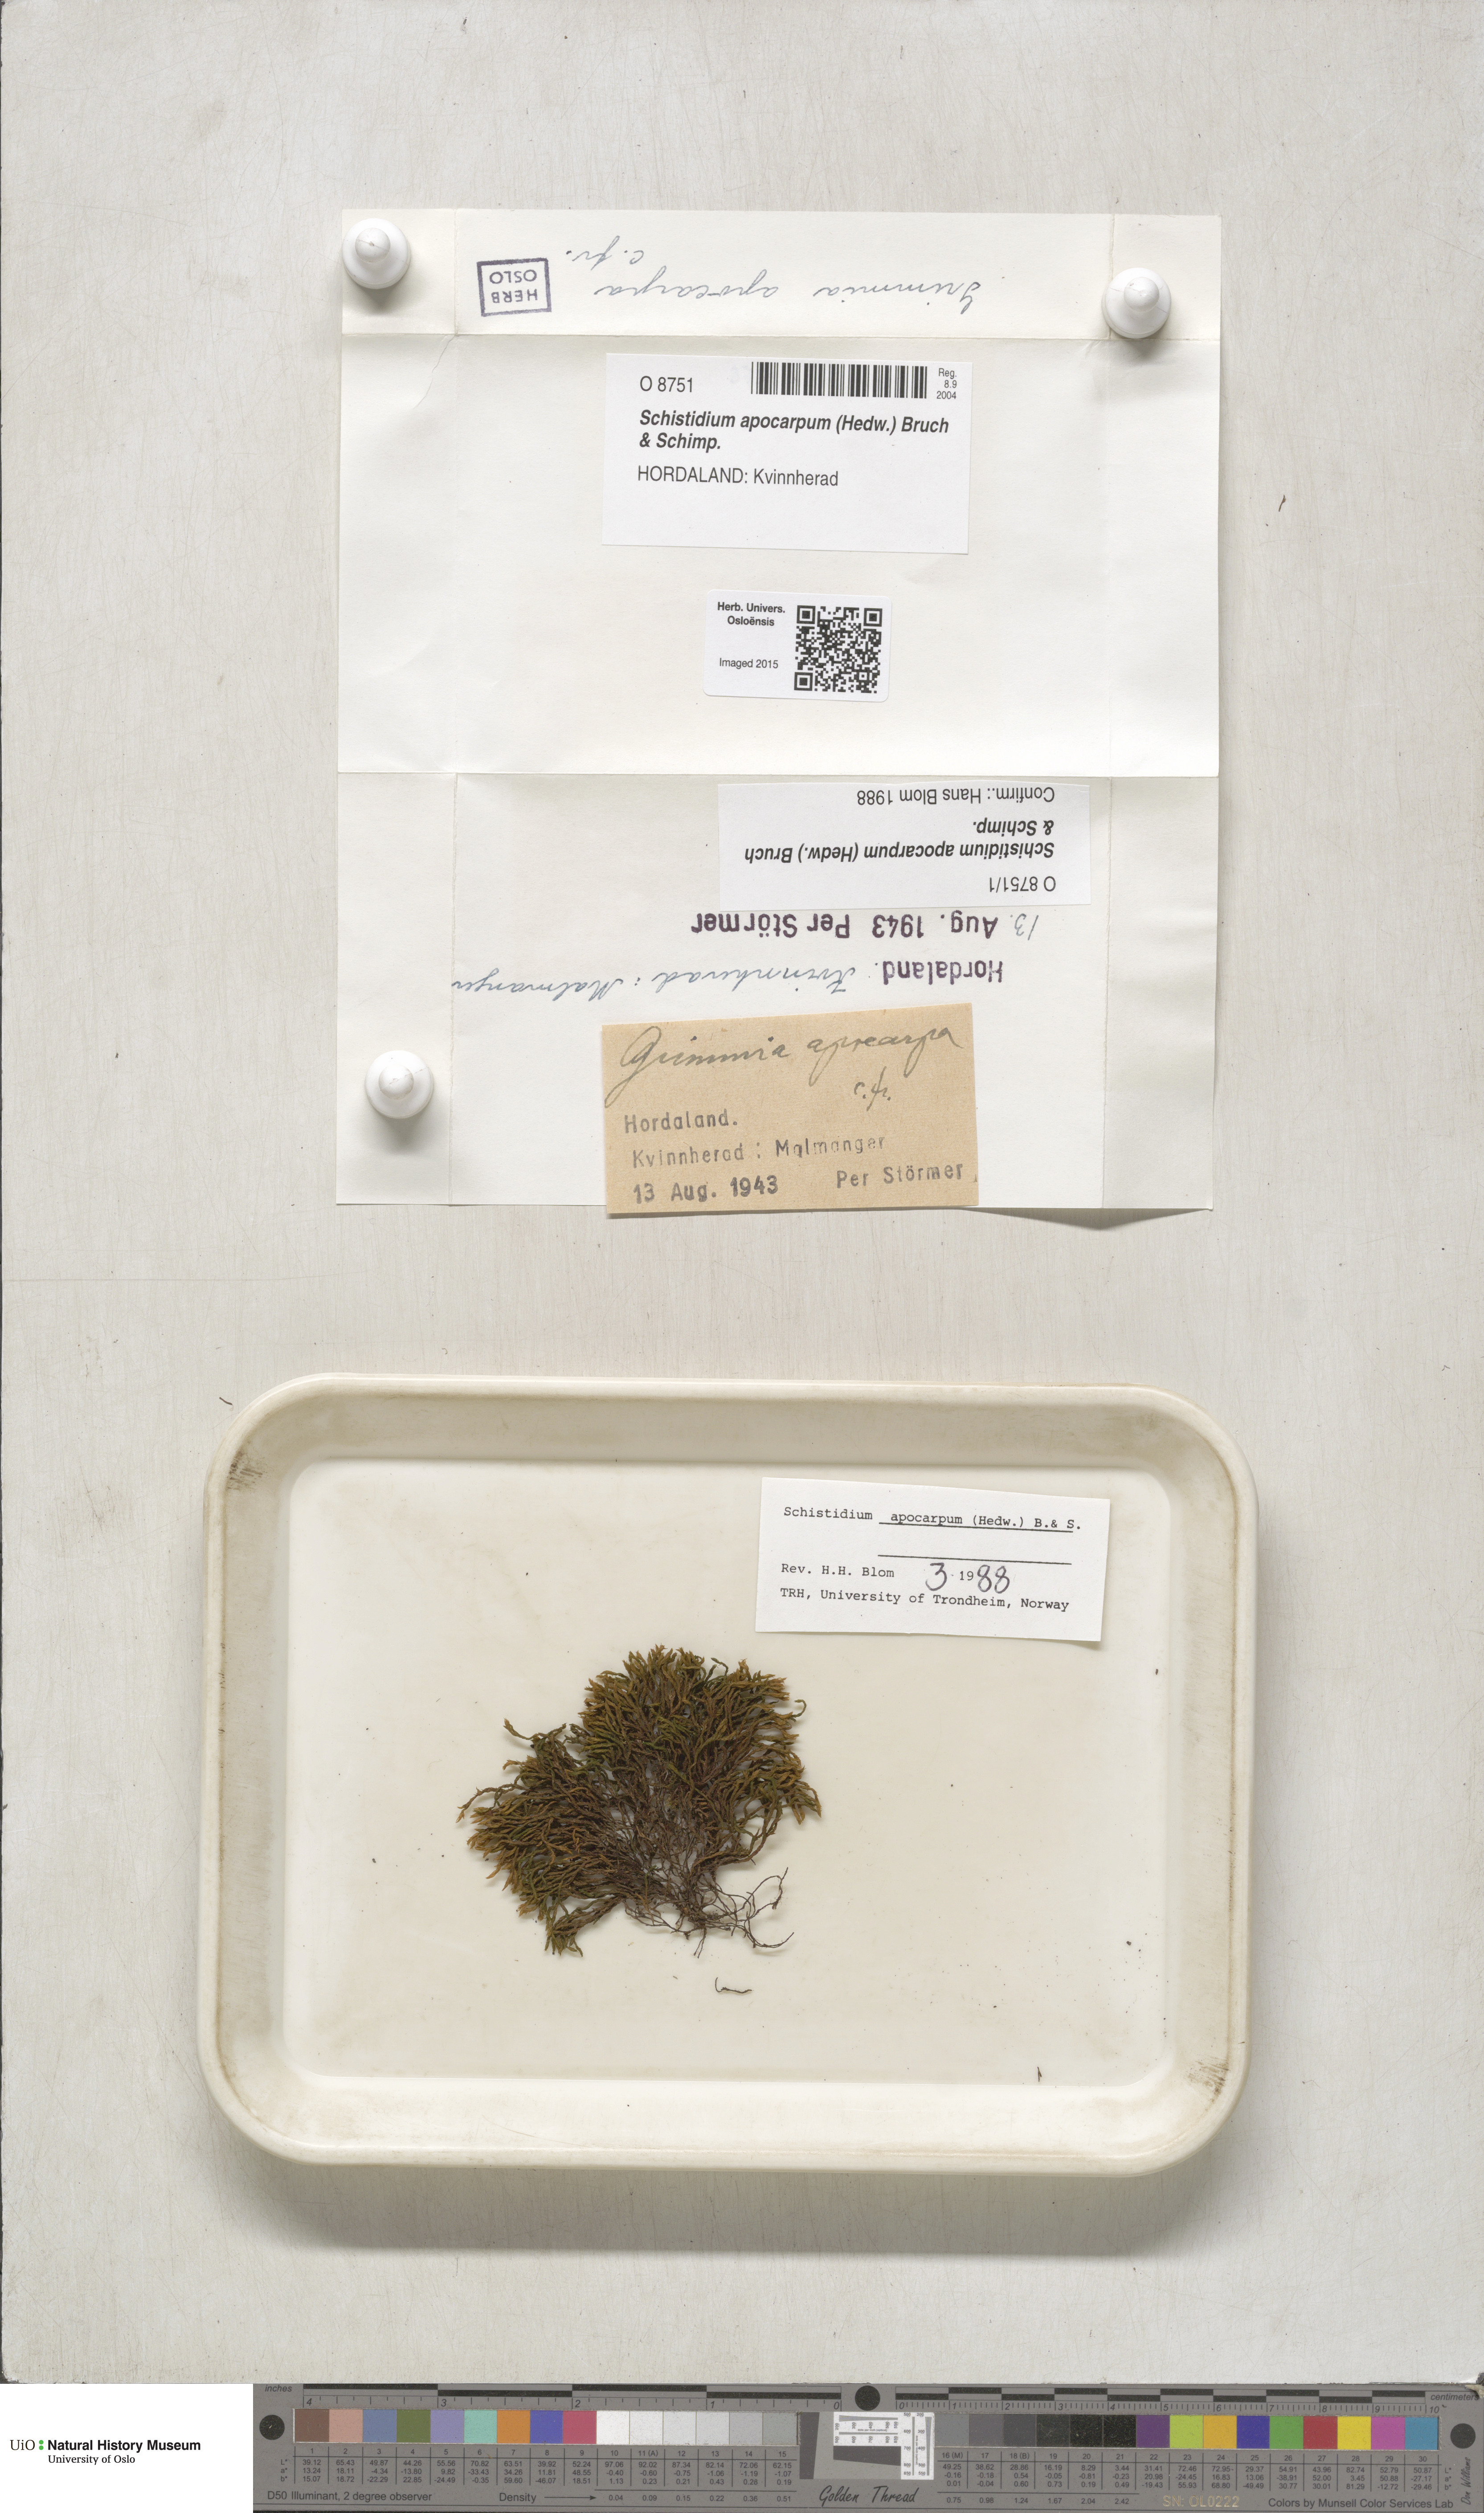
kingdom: Plantae
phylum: Bryophyta
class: Bryopsida
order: Grimmiales
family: Grimmiaceae
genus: Schistidium
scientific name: Schistidium apocarpum
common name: Radiate bloom moss
